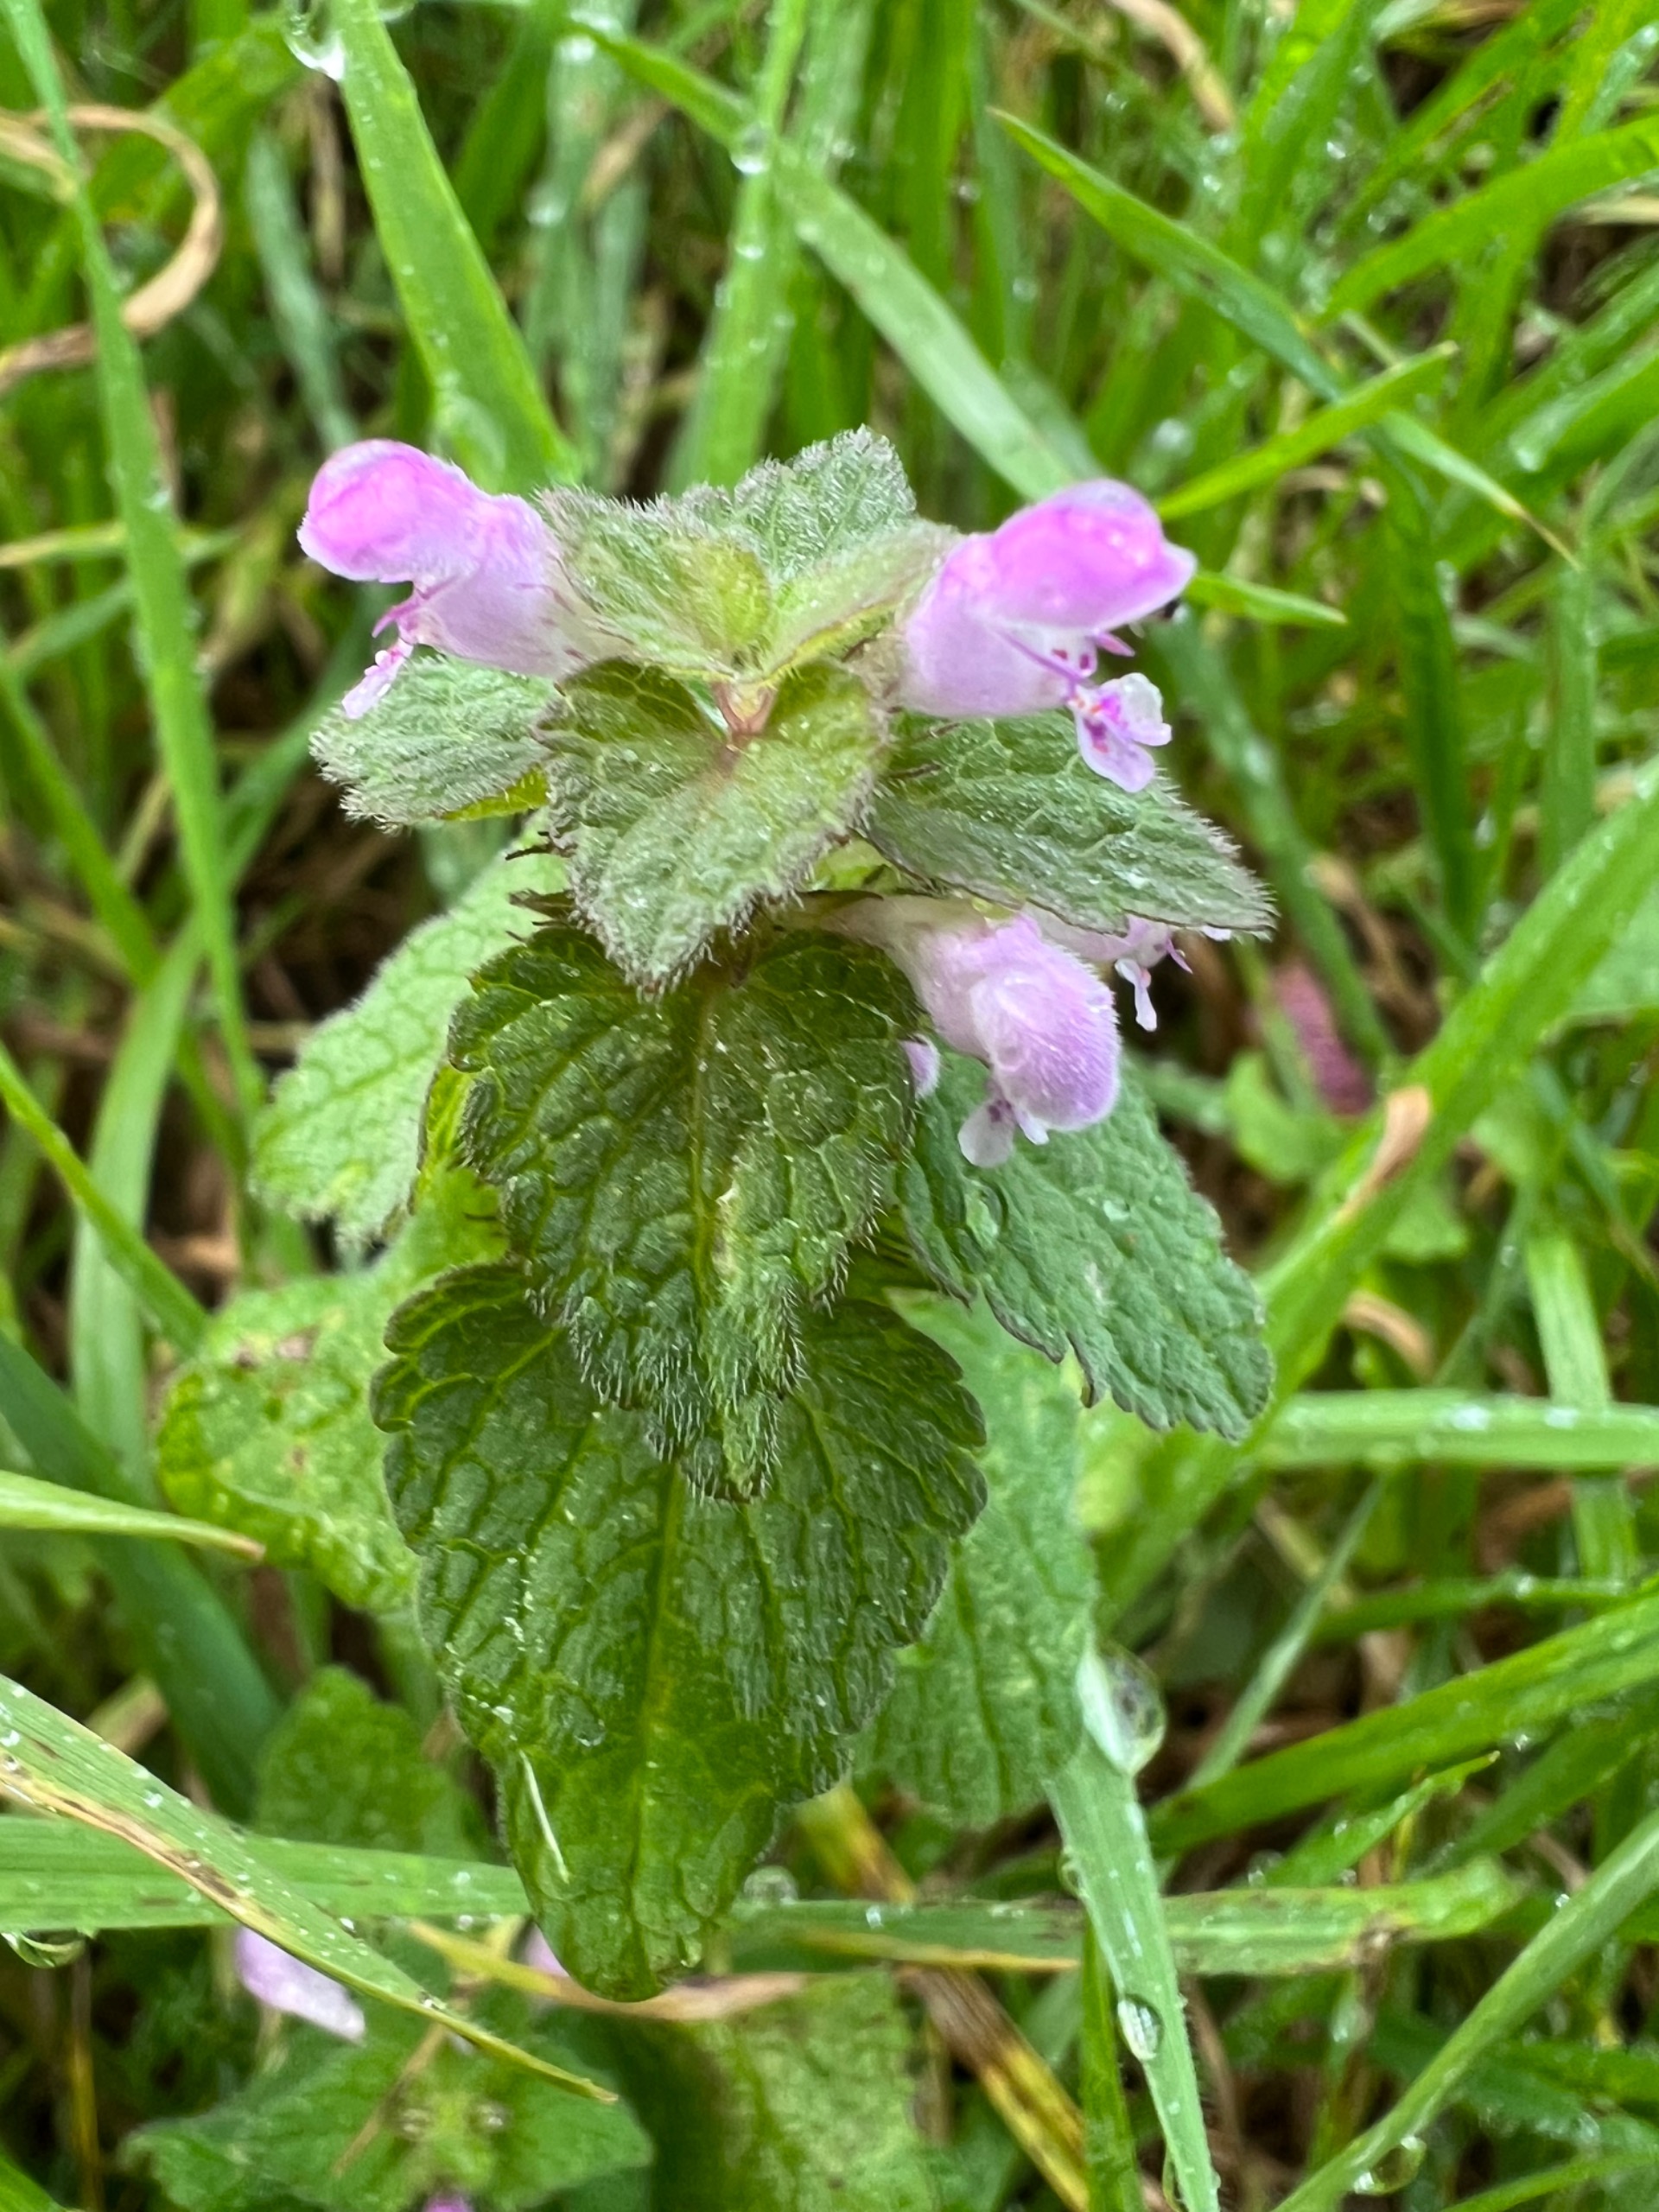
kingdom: Plantae
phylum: Tracheophyta
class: Magnoliopsida
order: Lamiales
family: Lamiaceae
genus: Lamium
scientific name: Lamium purpureum
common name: Rød tvetand
